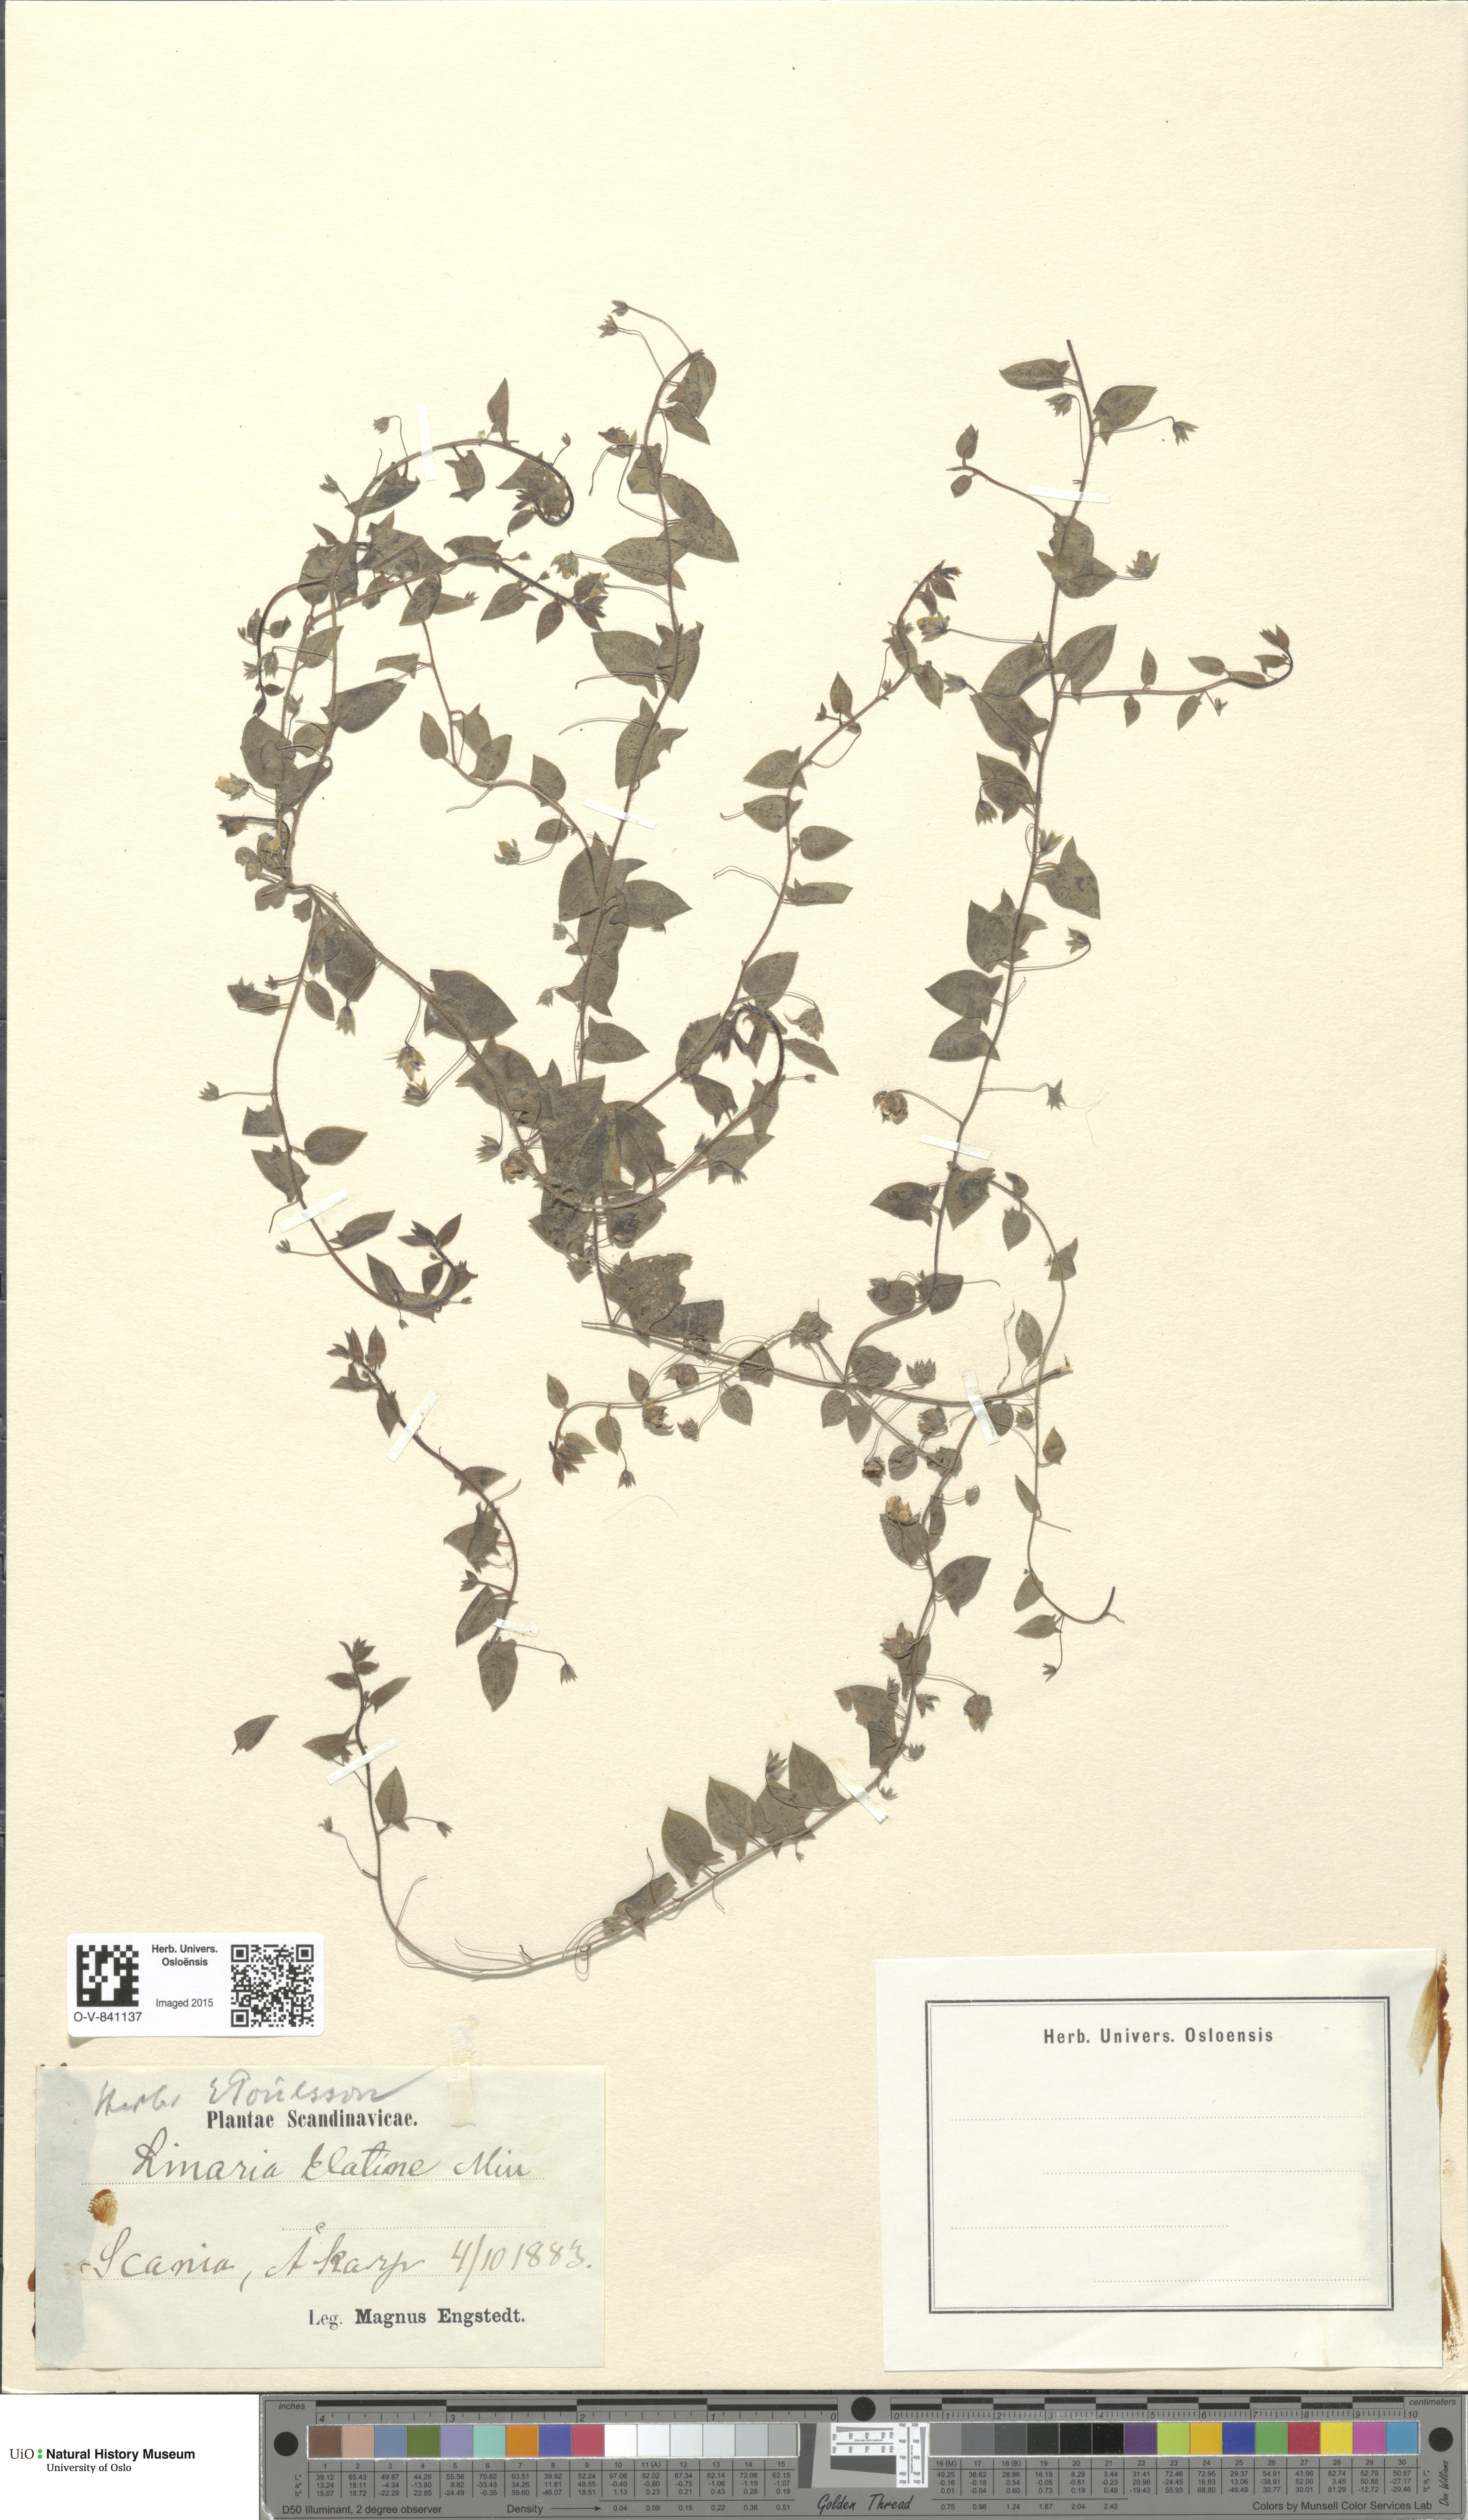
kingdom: Plantae
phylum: Tracheophyta
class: Magnoliopsida
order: Lamiales
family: Plantaginaceae
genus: Kickxia
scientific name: Kickxia elatine
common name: Sharp-leaved fluellen
